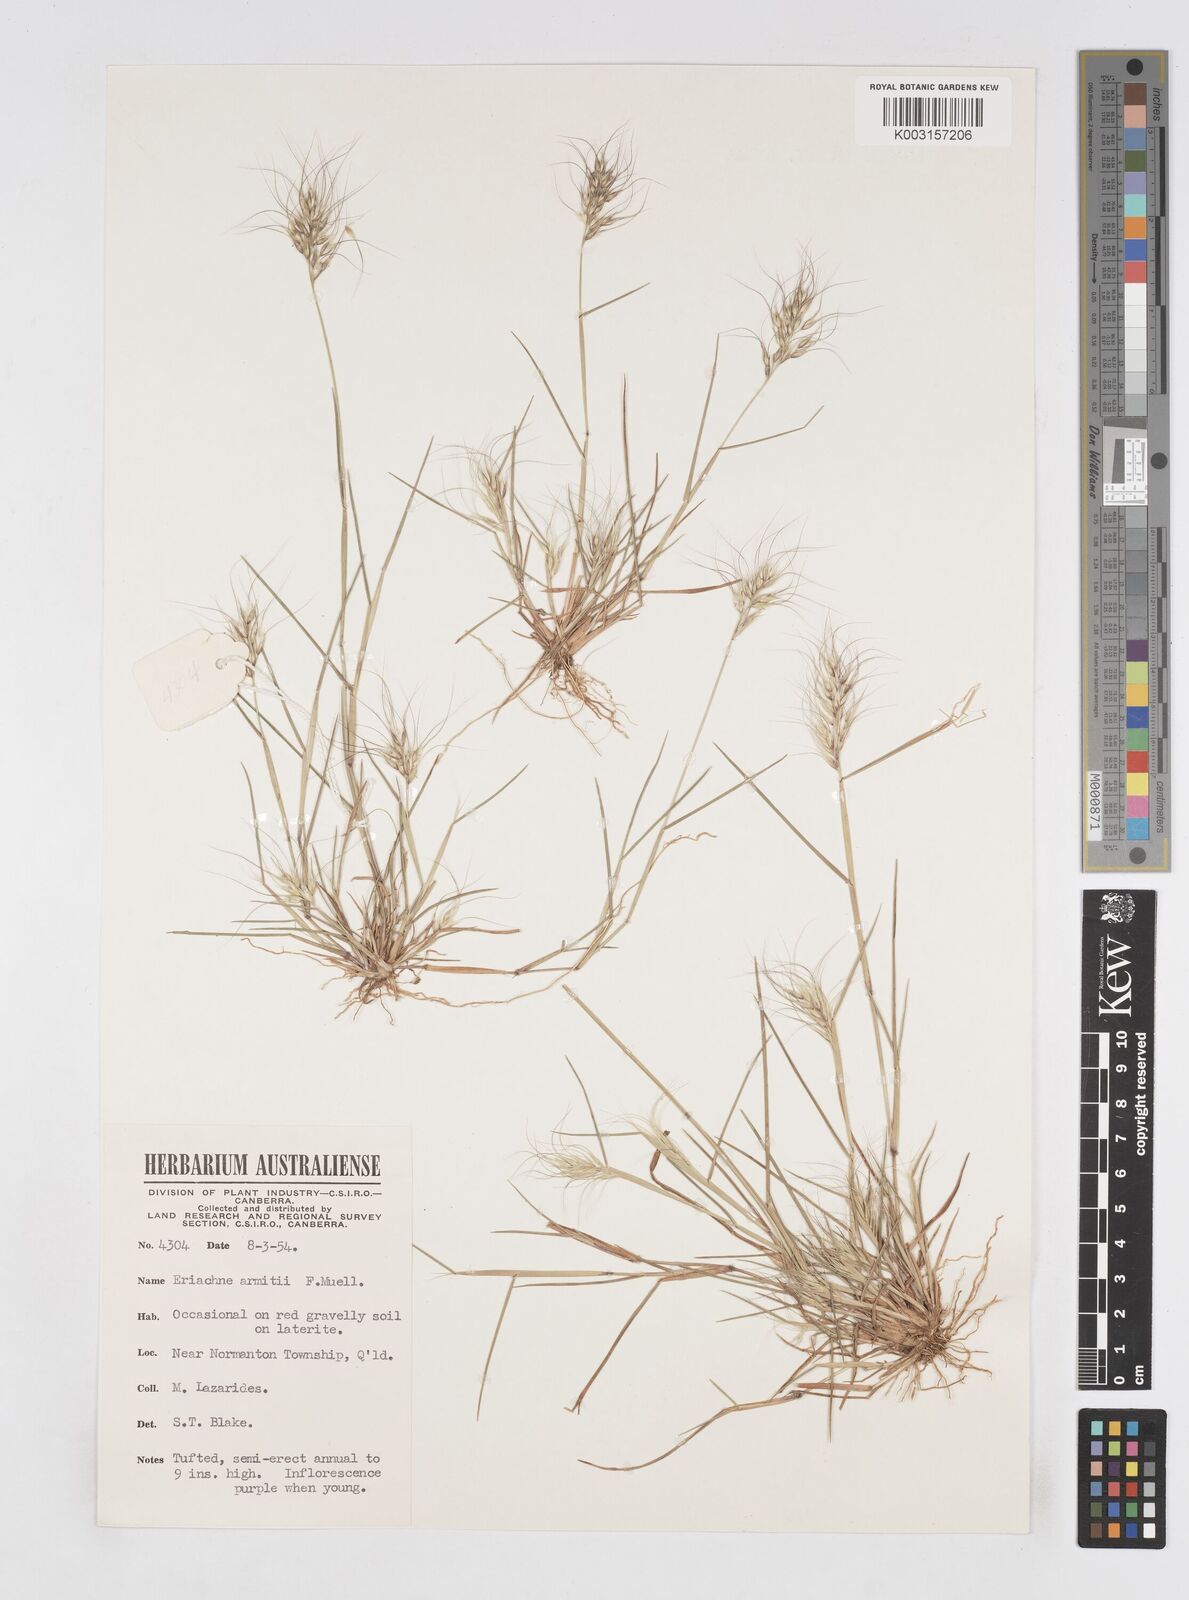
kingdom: Plantae
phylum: Tracheophyta
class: Liliopsida
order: Poales
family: Poaceae
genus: Eriachne
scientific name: Eriachne armitii
